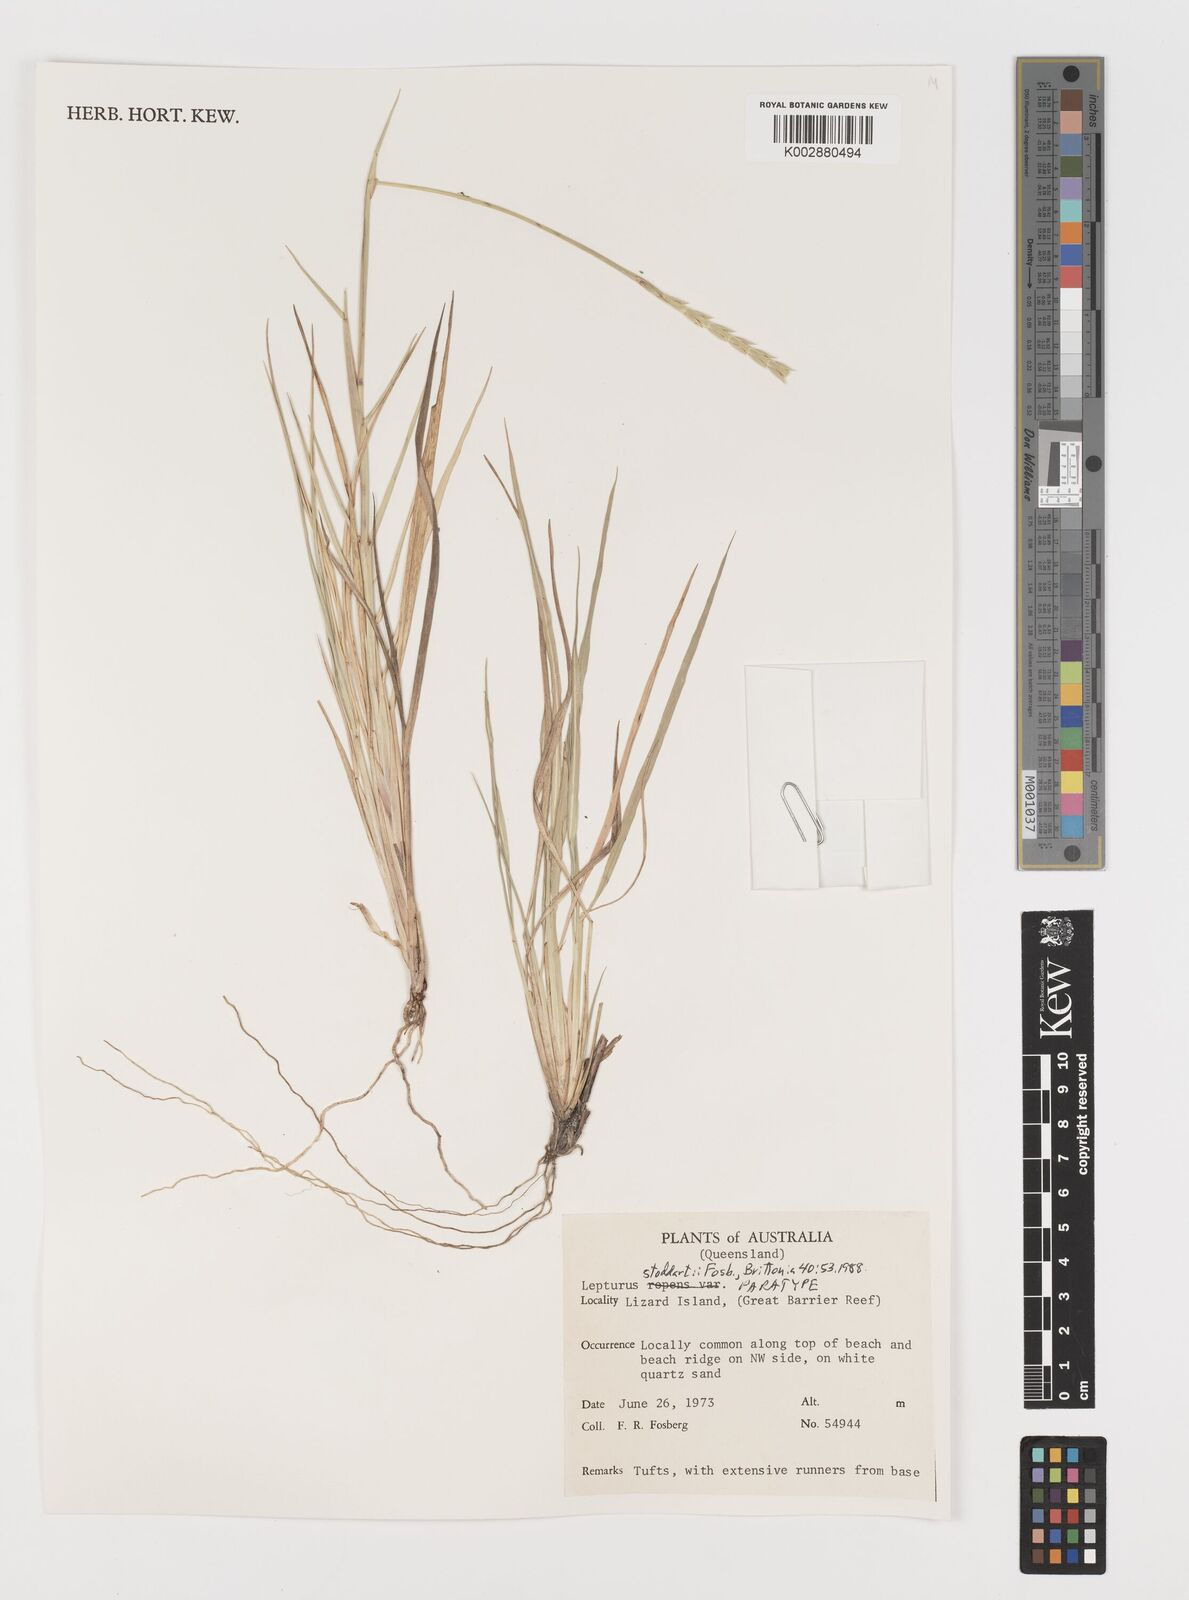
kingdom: Plantae
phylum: Tracheophyta
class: Liliopsida
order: Poales
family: Poaceae
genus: Lepturus
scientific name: Lepturus repens
